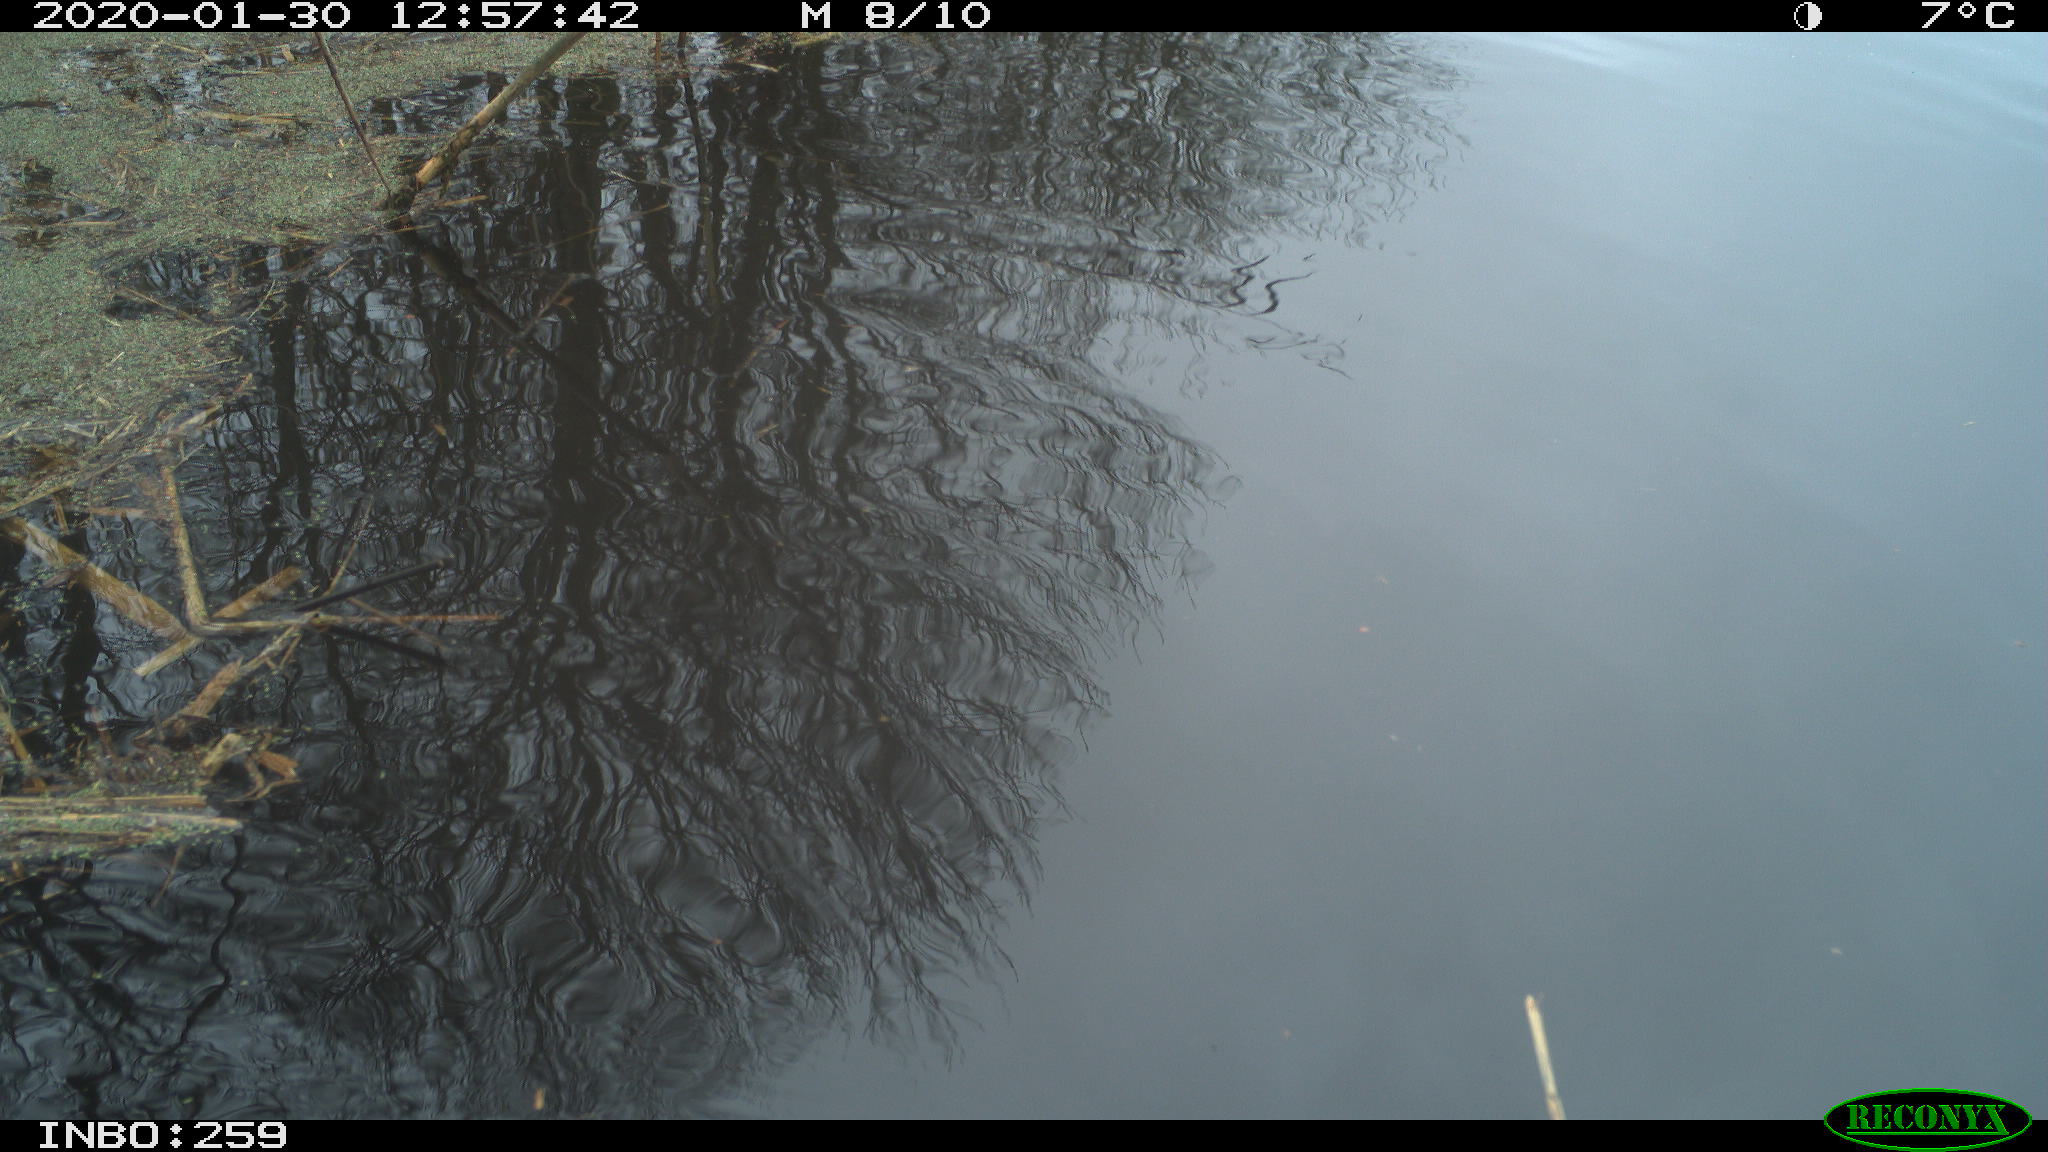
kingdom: Animalia
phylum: Chordata
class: Aves
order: Gruiformes
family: Rallidae
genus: Gallinula
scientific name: Gallinula chloropus
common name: Common moorhen
